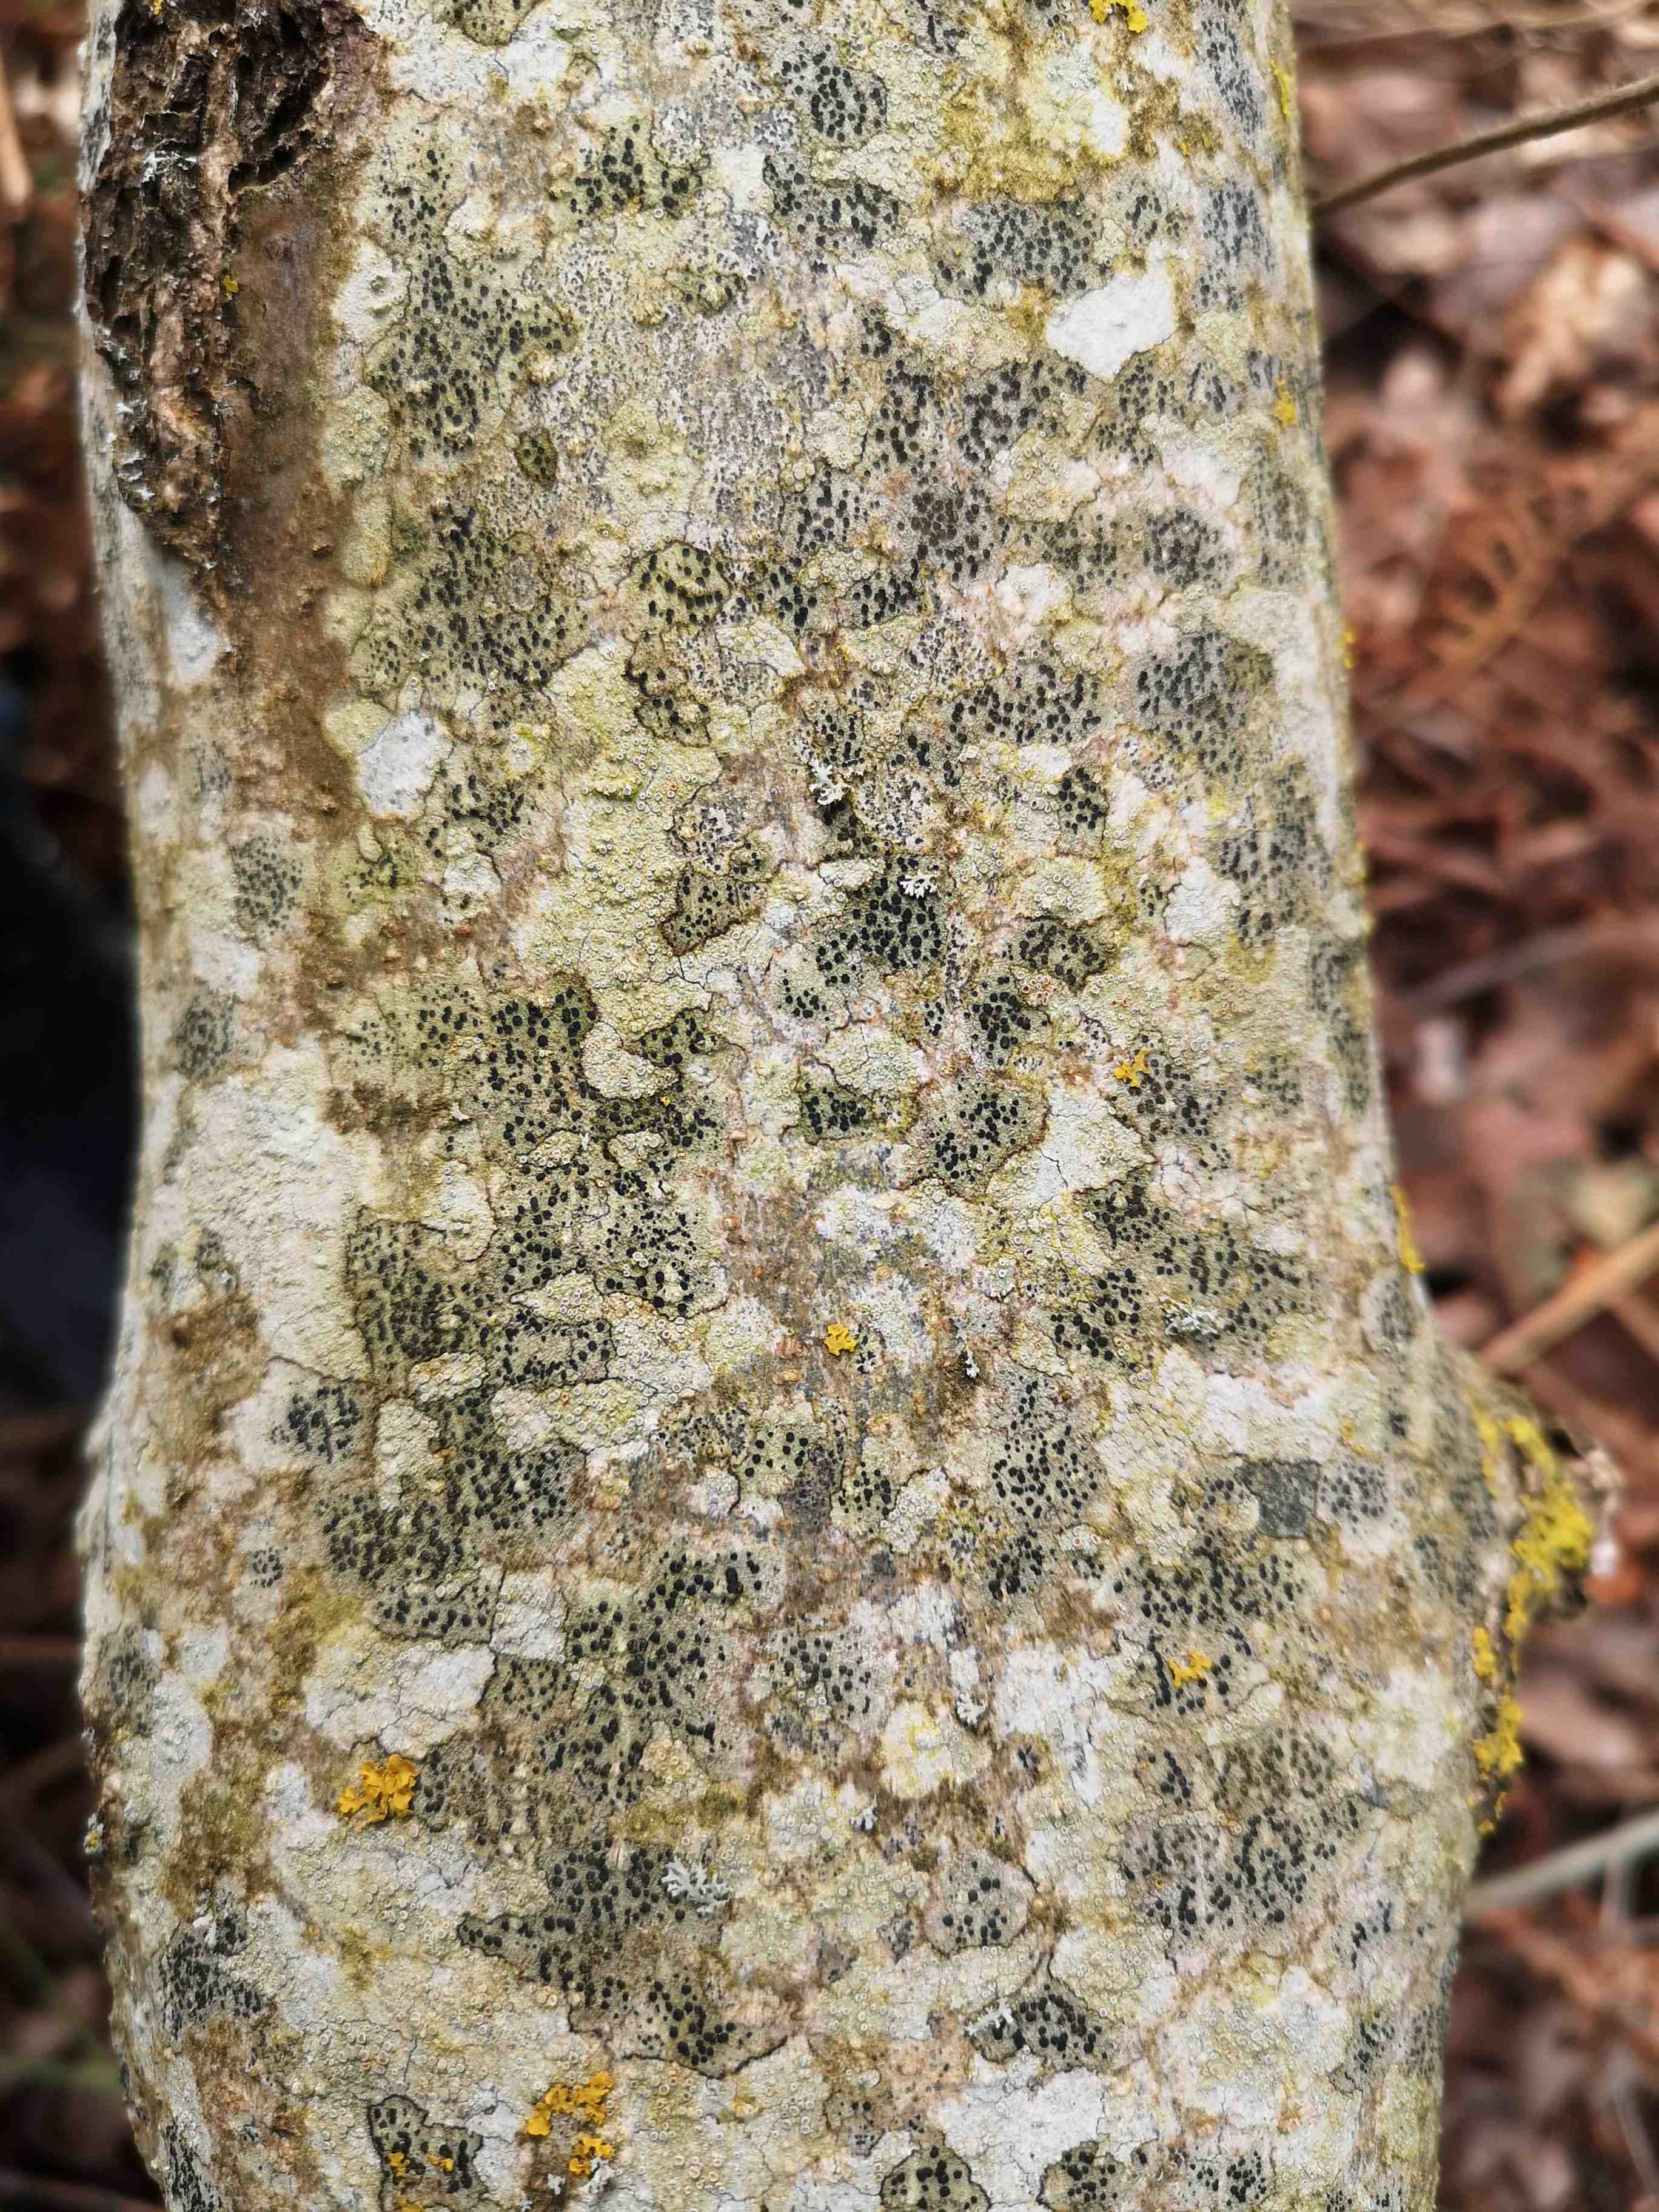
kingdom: Fungi
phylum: Ascomycota
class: Lecanoromycetes
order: Lecanorales
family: Lecanoraceae
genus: Lecidella
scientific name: Lecidella elaeochroma
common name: grågrøn skivelav
